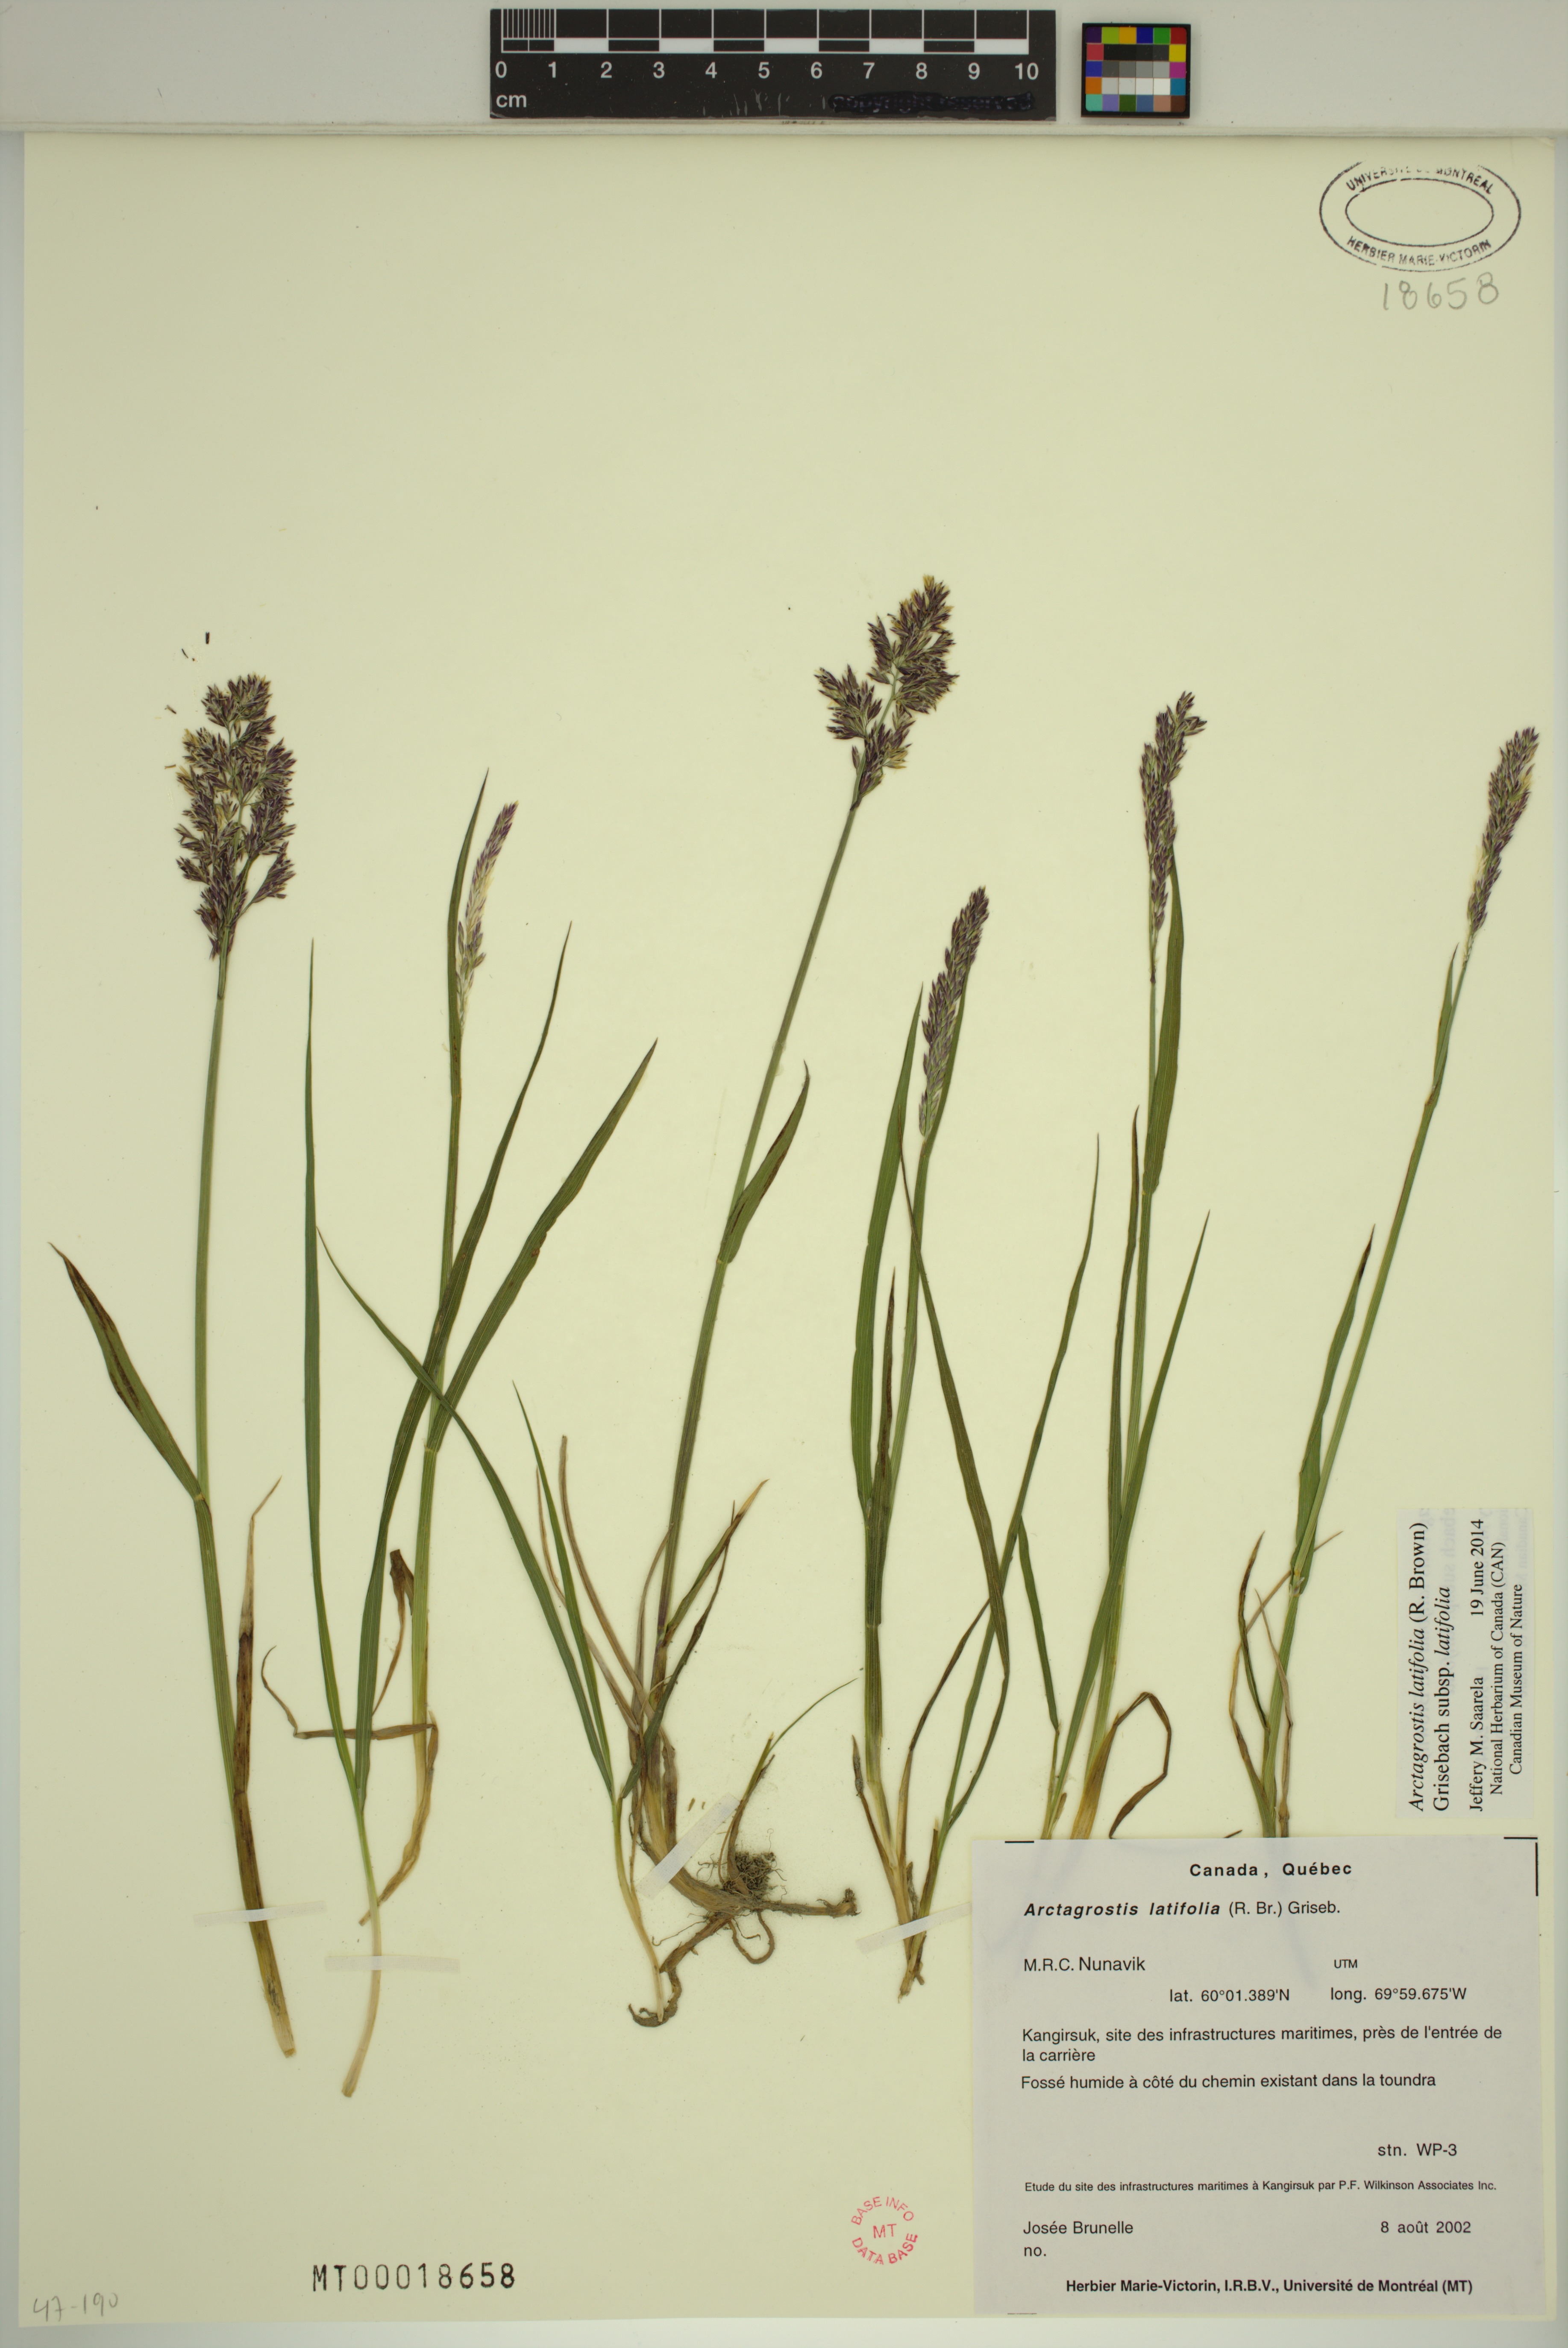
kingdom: Plantae
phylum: Tracheophyta
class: Liliopsida
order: Poales
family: Poaceae
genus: Arctagrostis
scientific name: Arctagrostis latifolia
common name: Arctic grass
